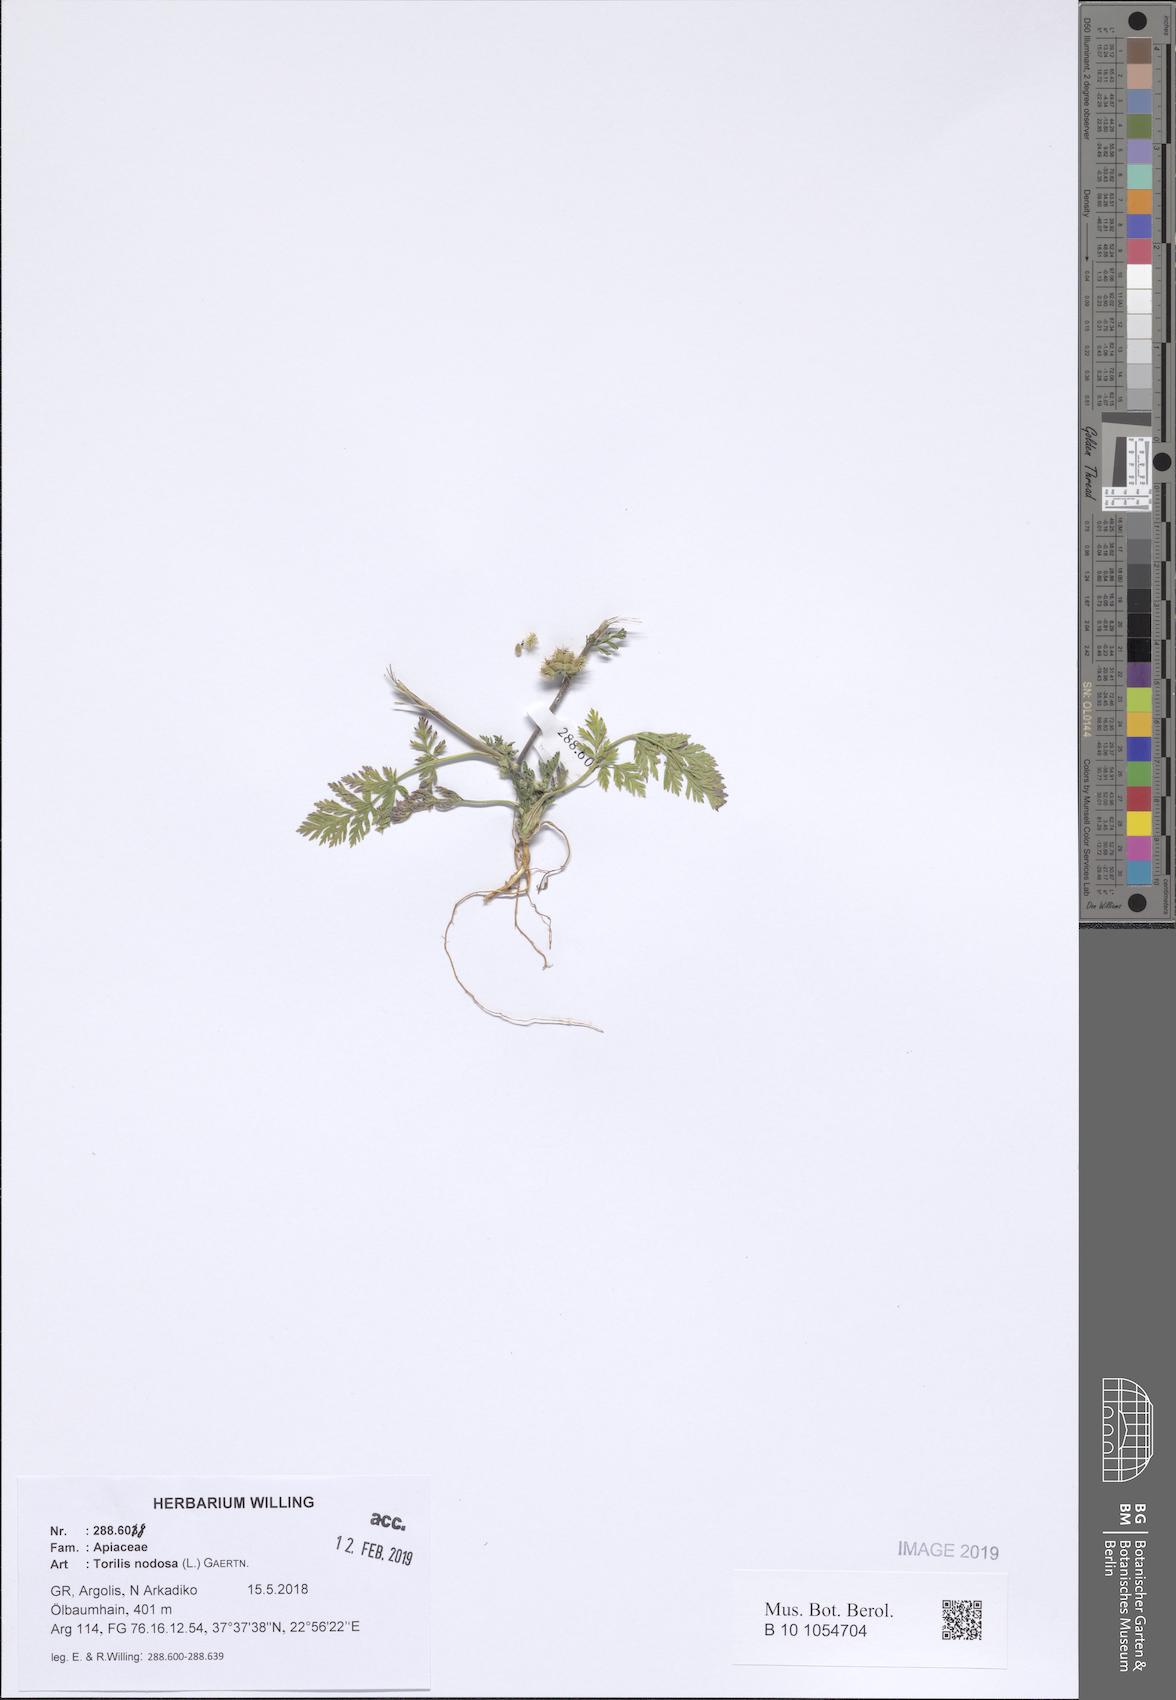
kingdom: Plantae
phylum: Tracheophyta
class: Magnoliopsida
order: Apiales
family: Apiaceae
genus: Torilis
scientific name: Torilis nodosa
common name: Knotted hedge-parsley
